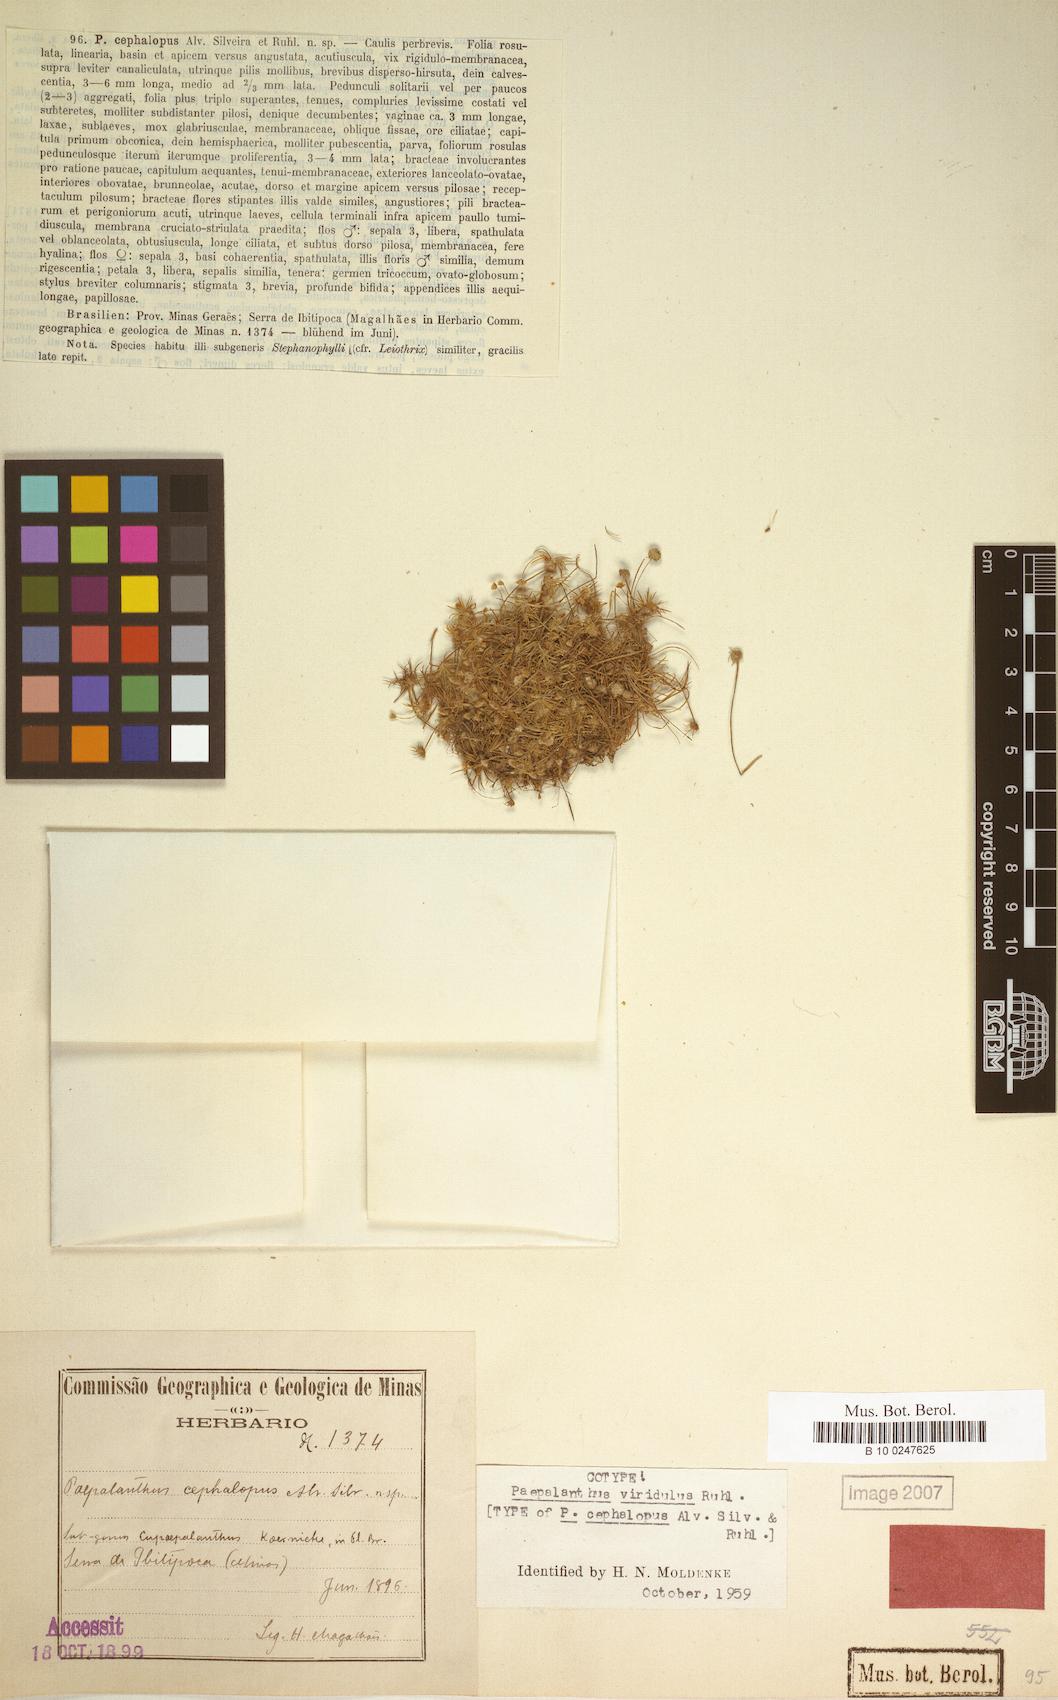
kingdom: Plantae
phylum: Tracheophyta
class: Liliopsida
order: Poales
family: Eriocaulaceae
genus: Paepalanthus
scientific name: Paepalanthus viridulus
